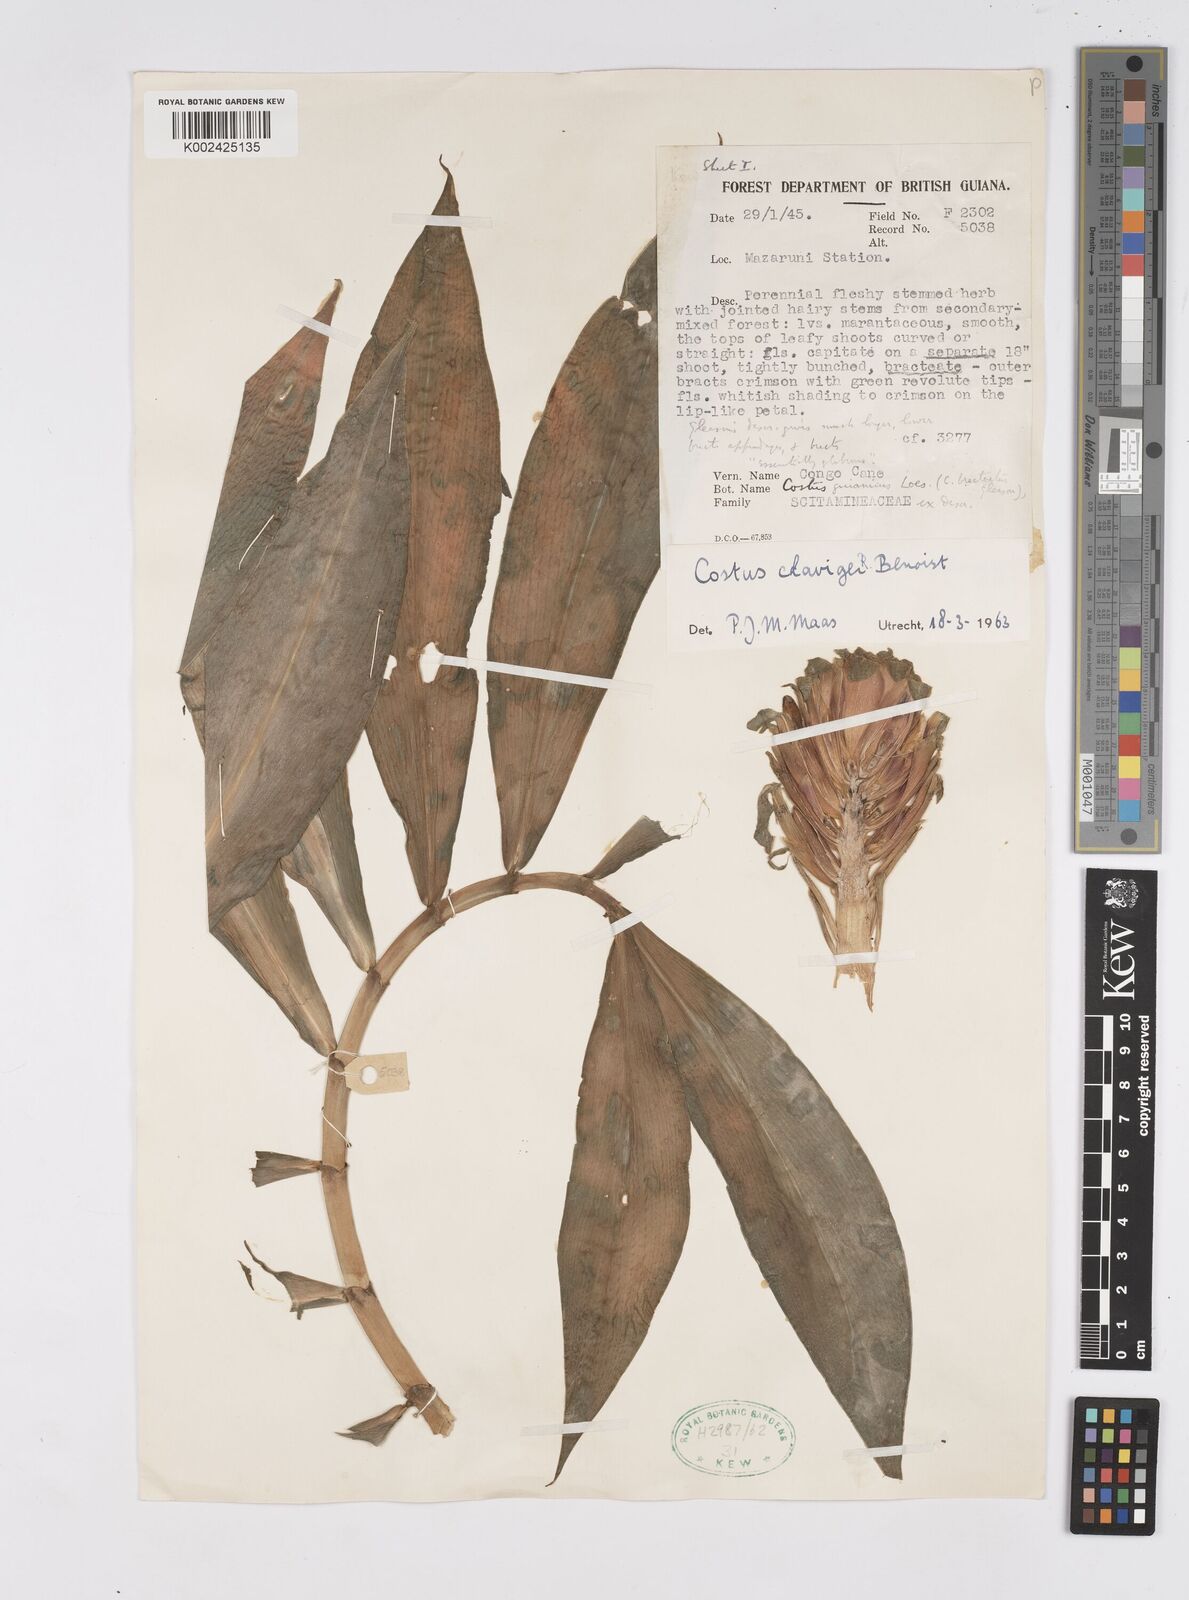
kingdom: Plantae
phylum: Tracheophyta
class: Liliopsida
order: Zingiberales
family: Costaceae
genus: Costus
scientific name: Costus claviger
